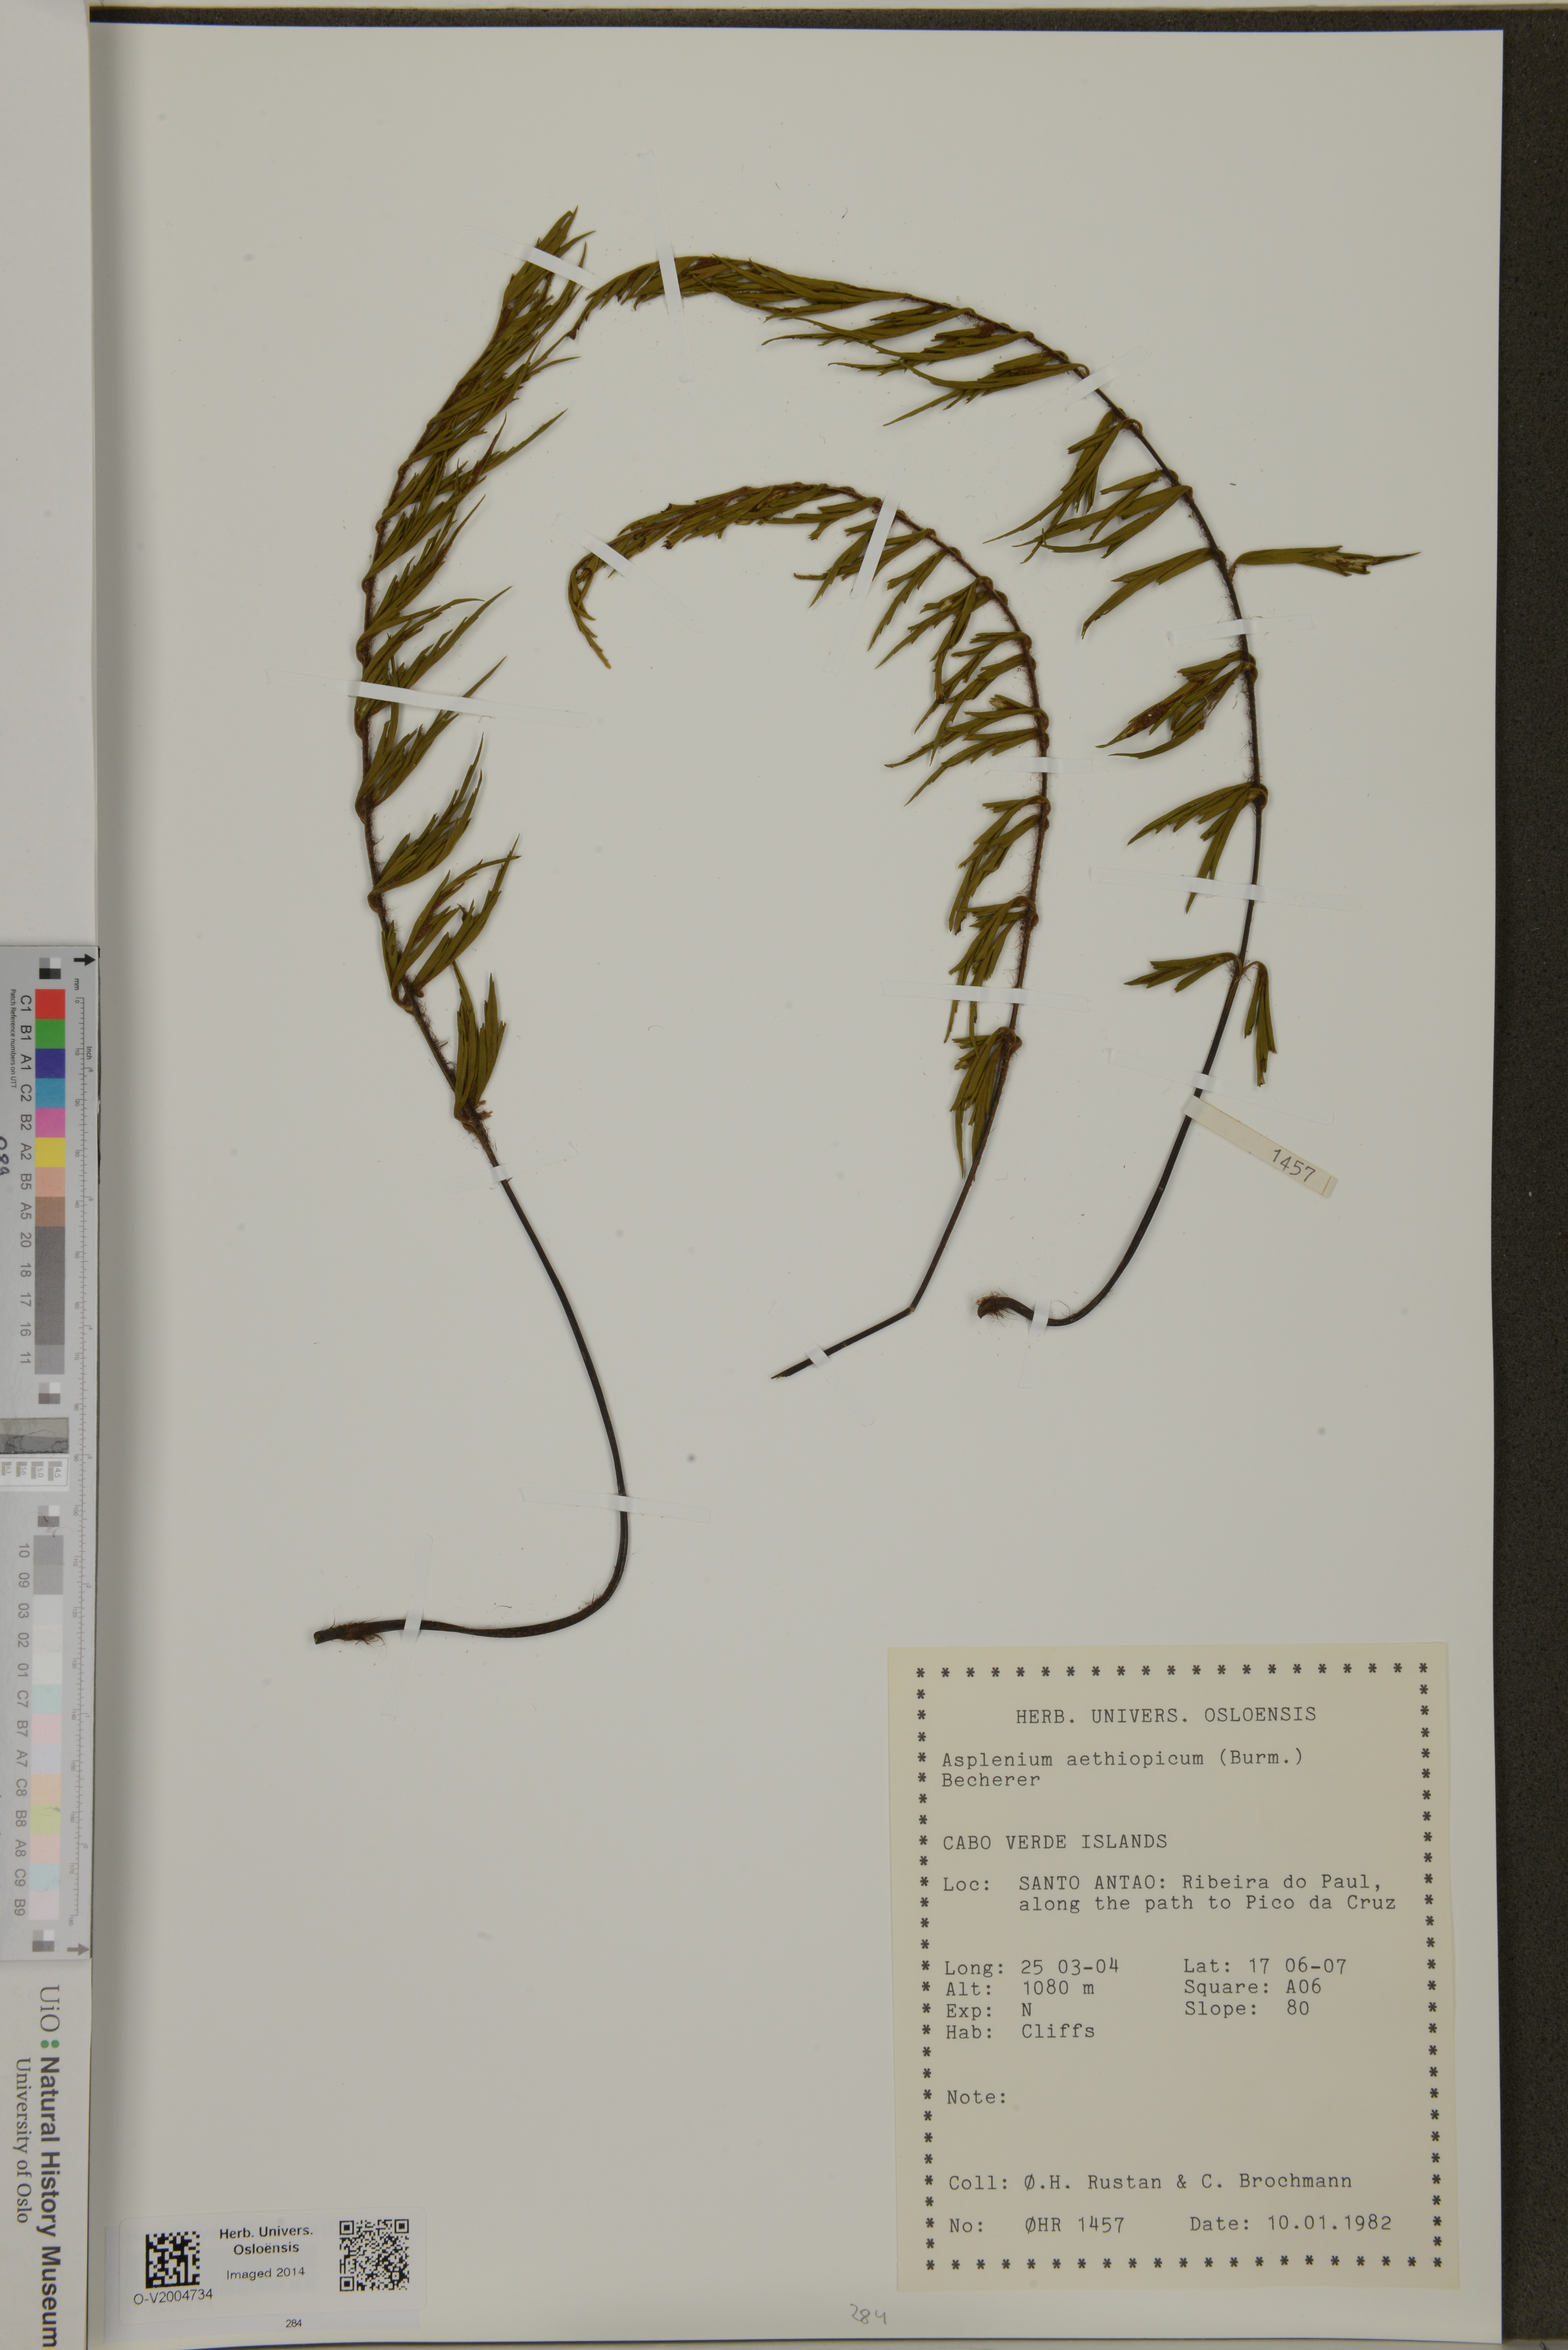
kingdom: Plantae
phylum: Tracheophyta
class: Polypodiopsida
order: Polypodiales
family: Aspleniaceae
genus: Asplenium
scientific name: Asplenium aethiopicum
